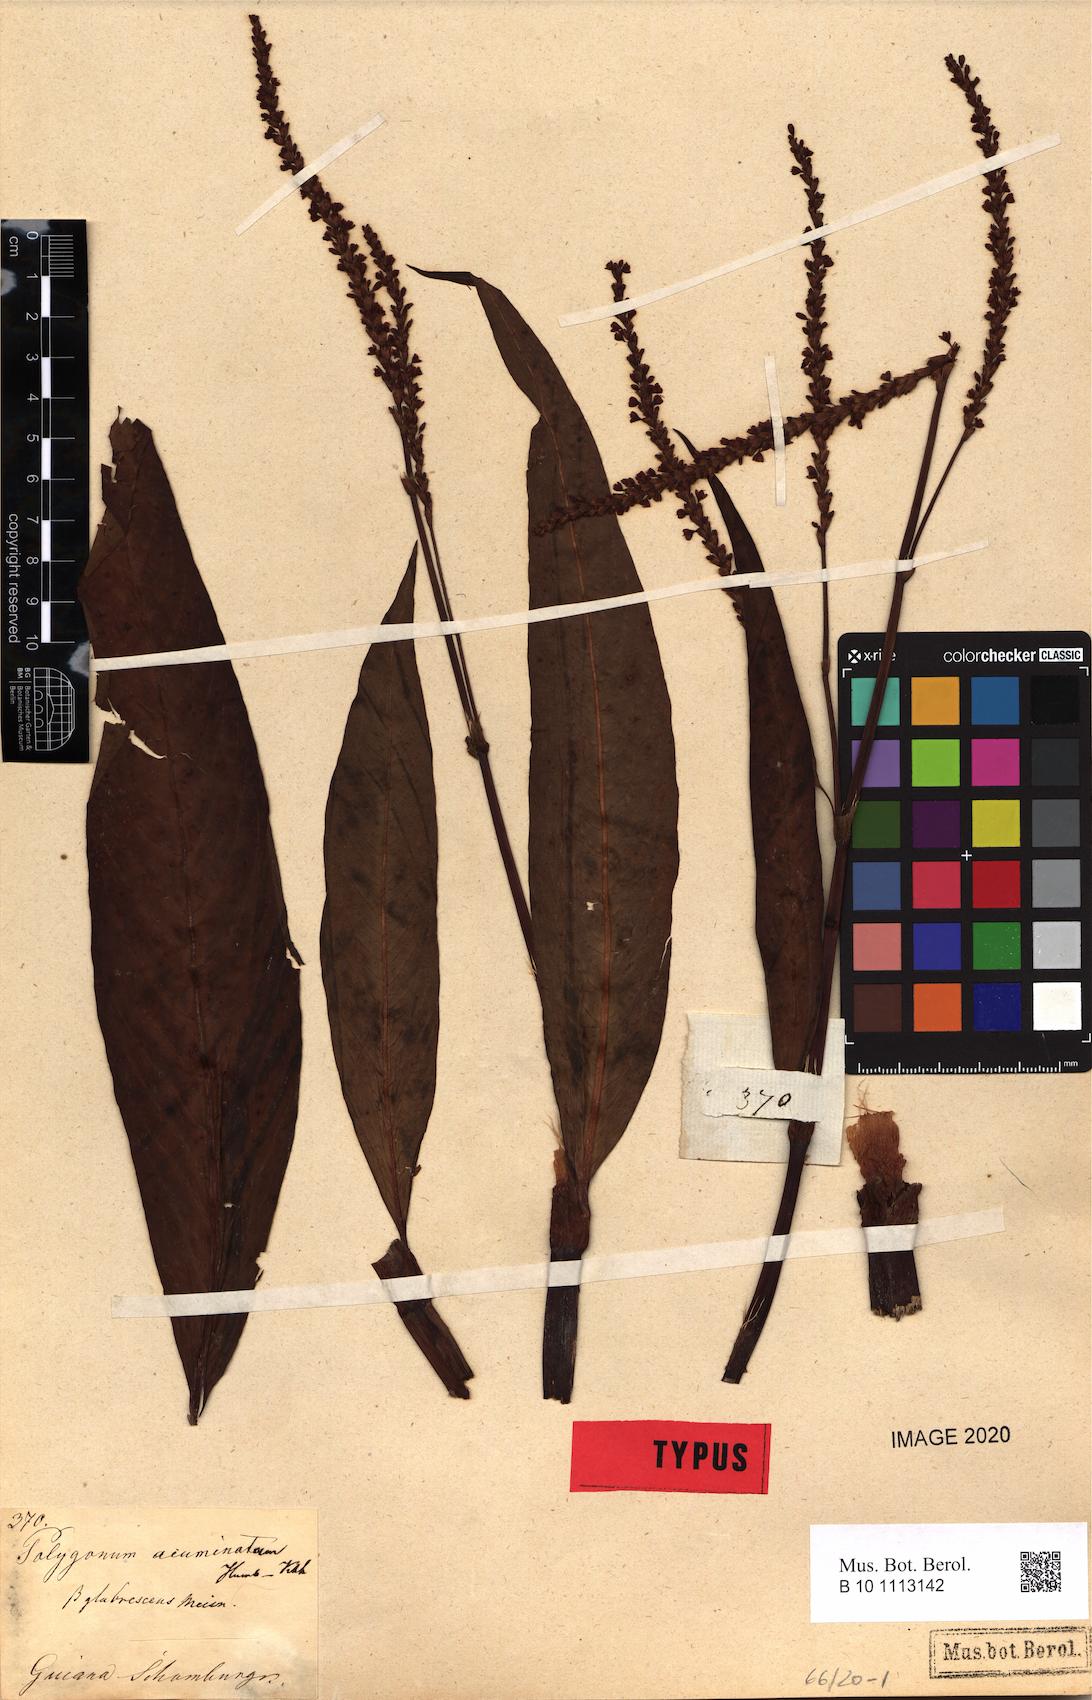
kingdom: Plantae
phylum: Tracheophyta
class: Magnoliopsida
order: Caryophyllales
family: Polygonaceae
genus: Persicaria
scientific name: Persicaria acuminata
